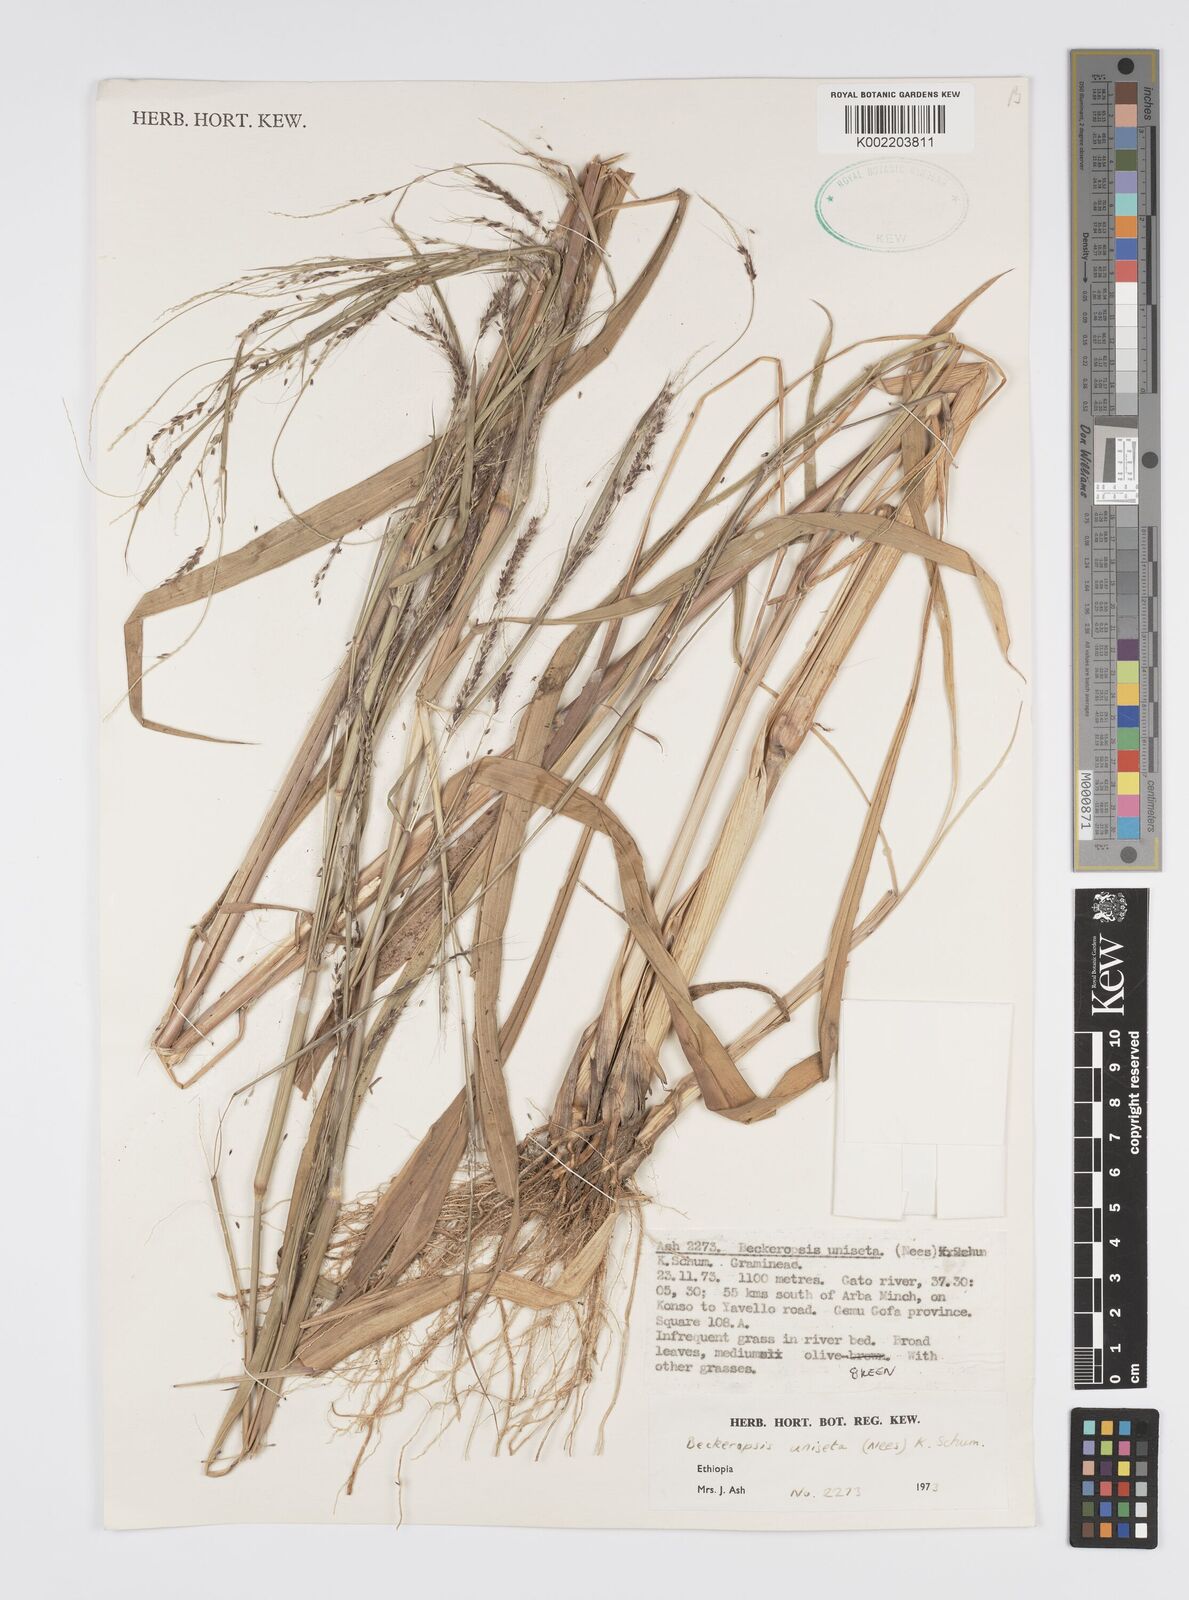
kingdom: Plantae
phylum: Tracheophyta
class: Liliopsida
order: Poales
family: Poaceae
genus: Cenchrus
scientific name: Cenchrus unisetus
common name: Natal grass
